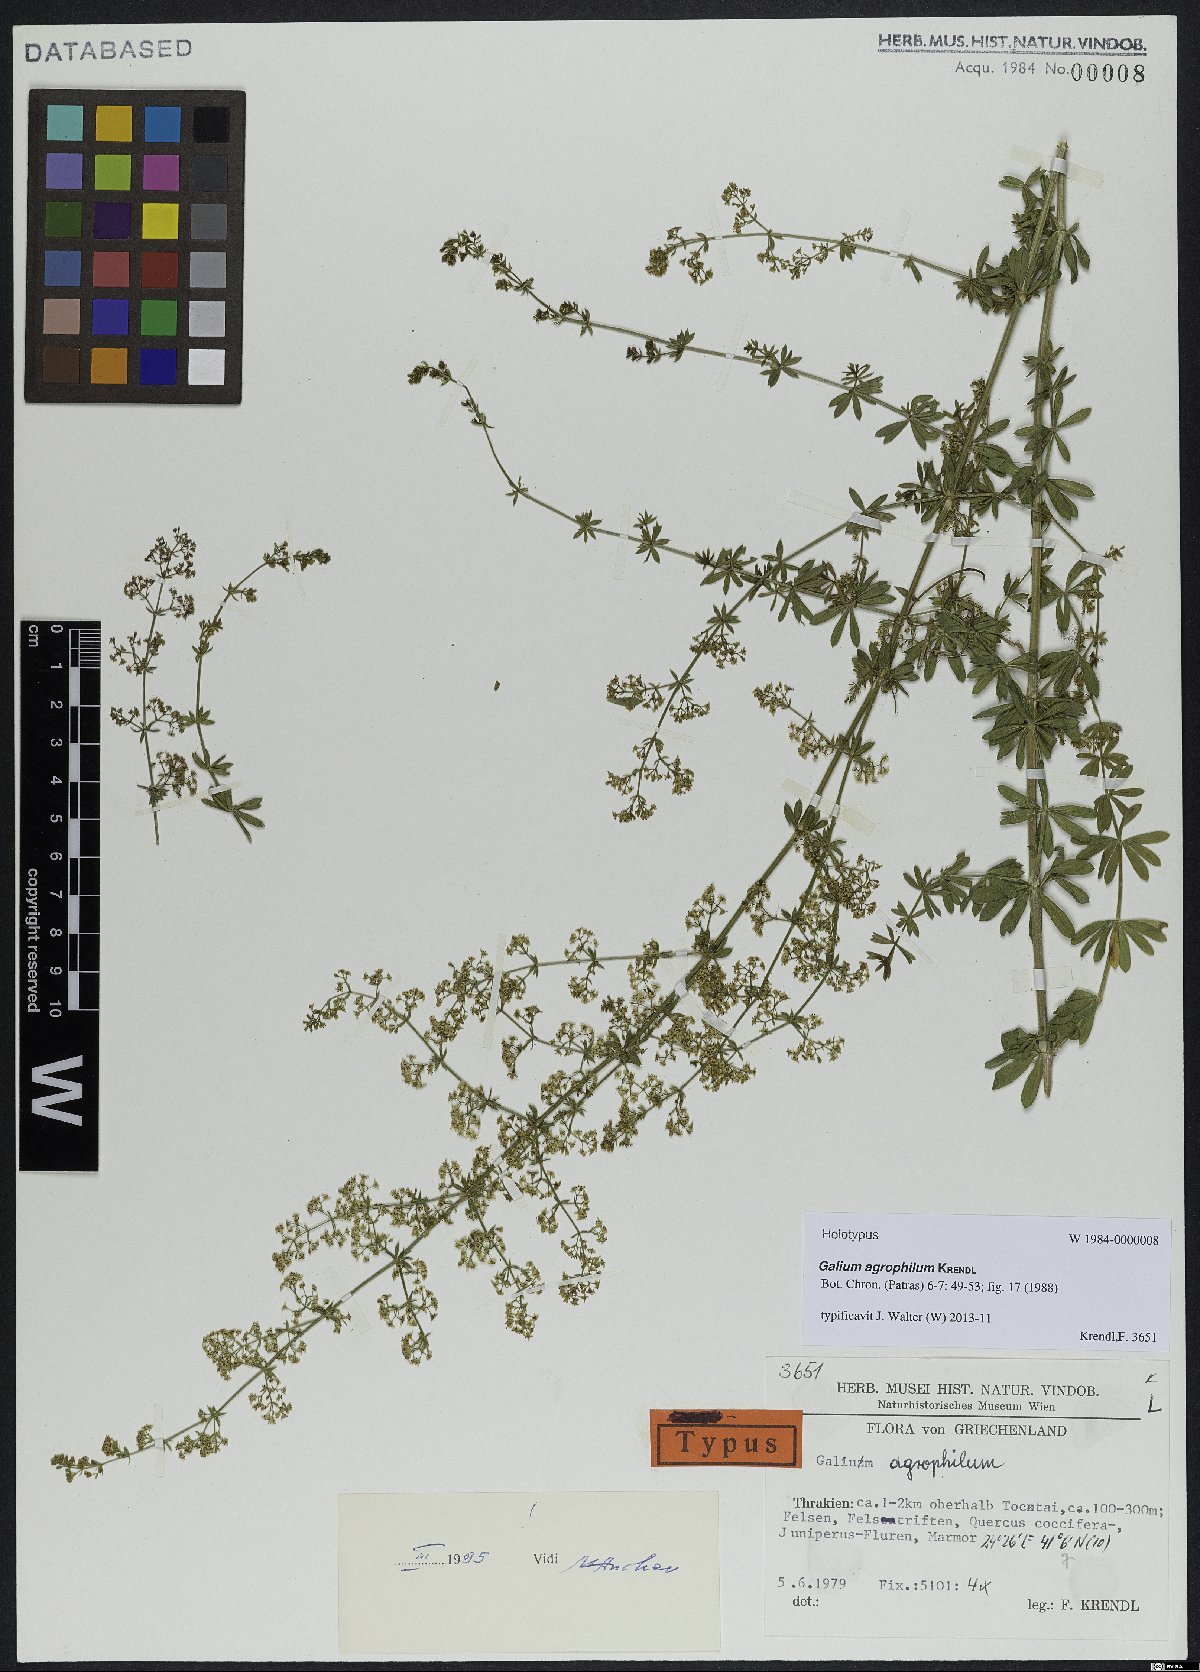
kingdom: Plantae
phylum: Tracheophyta
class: Magnoliopsida
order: Gentianales
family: Rubiaceae
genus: Galium
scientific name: Galium agrophilum
